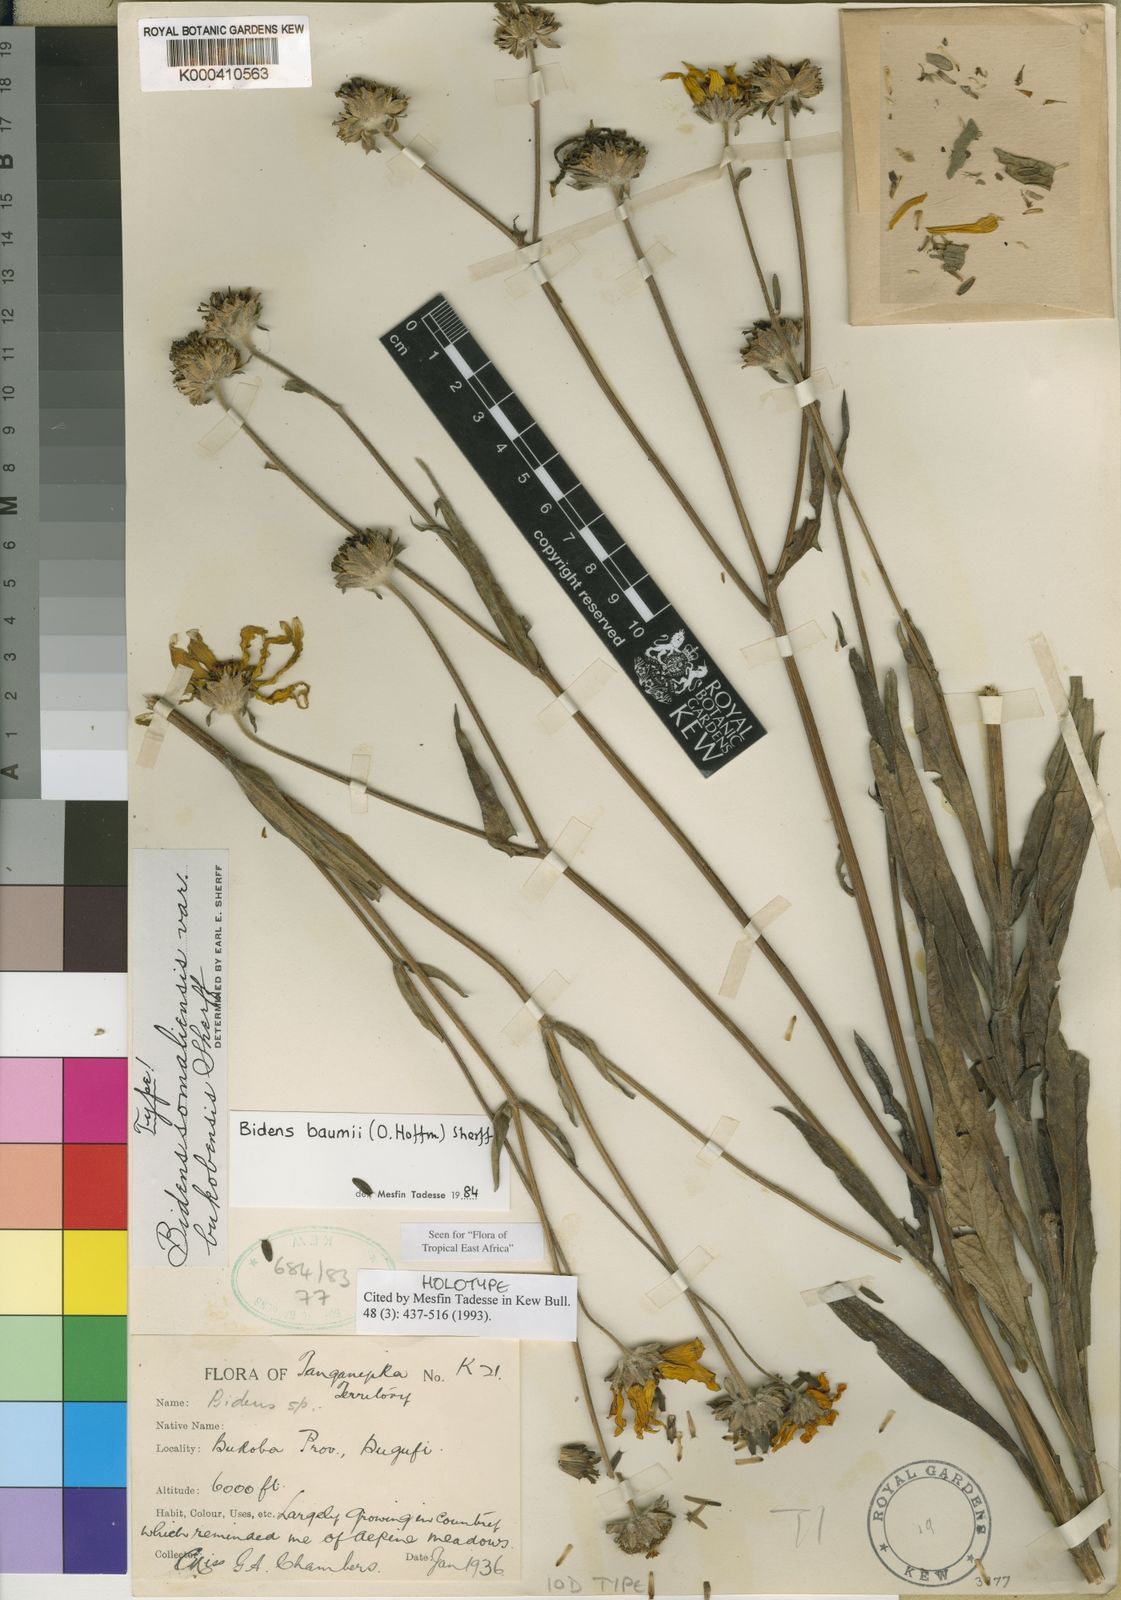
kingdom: Plantae
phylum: Tracheophyta
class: Magnoliopsida
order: Asterales
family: Asteraceae
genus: Bidens
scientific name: Bidens baumii
